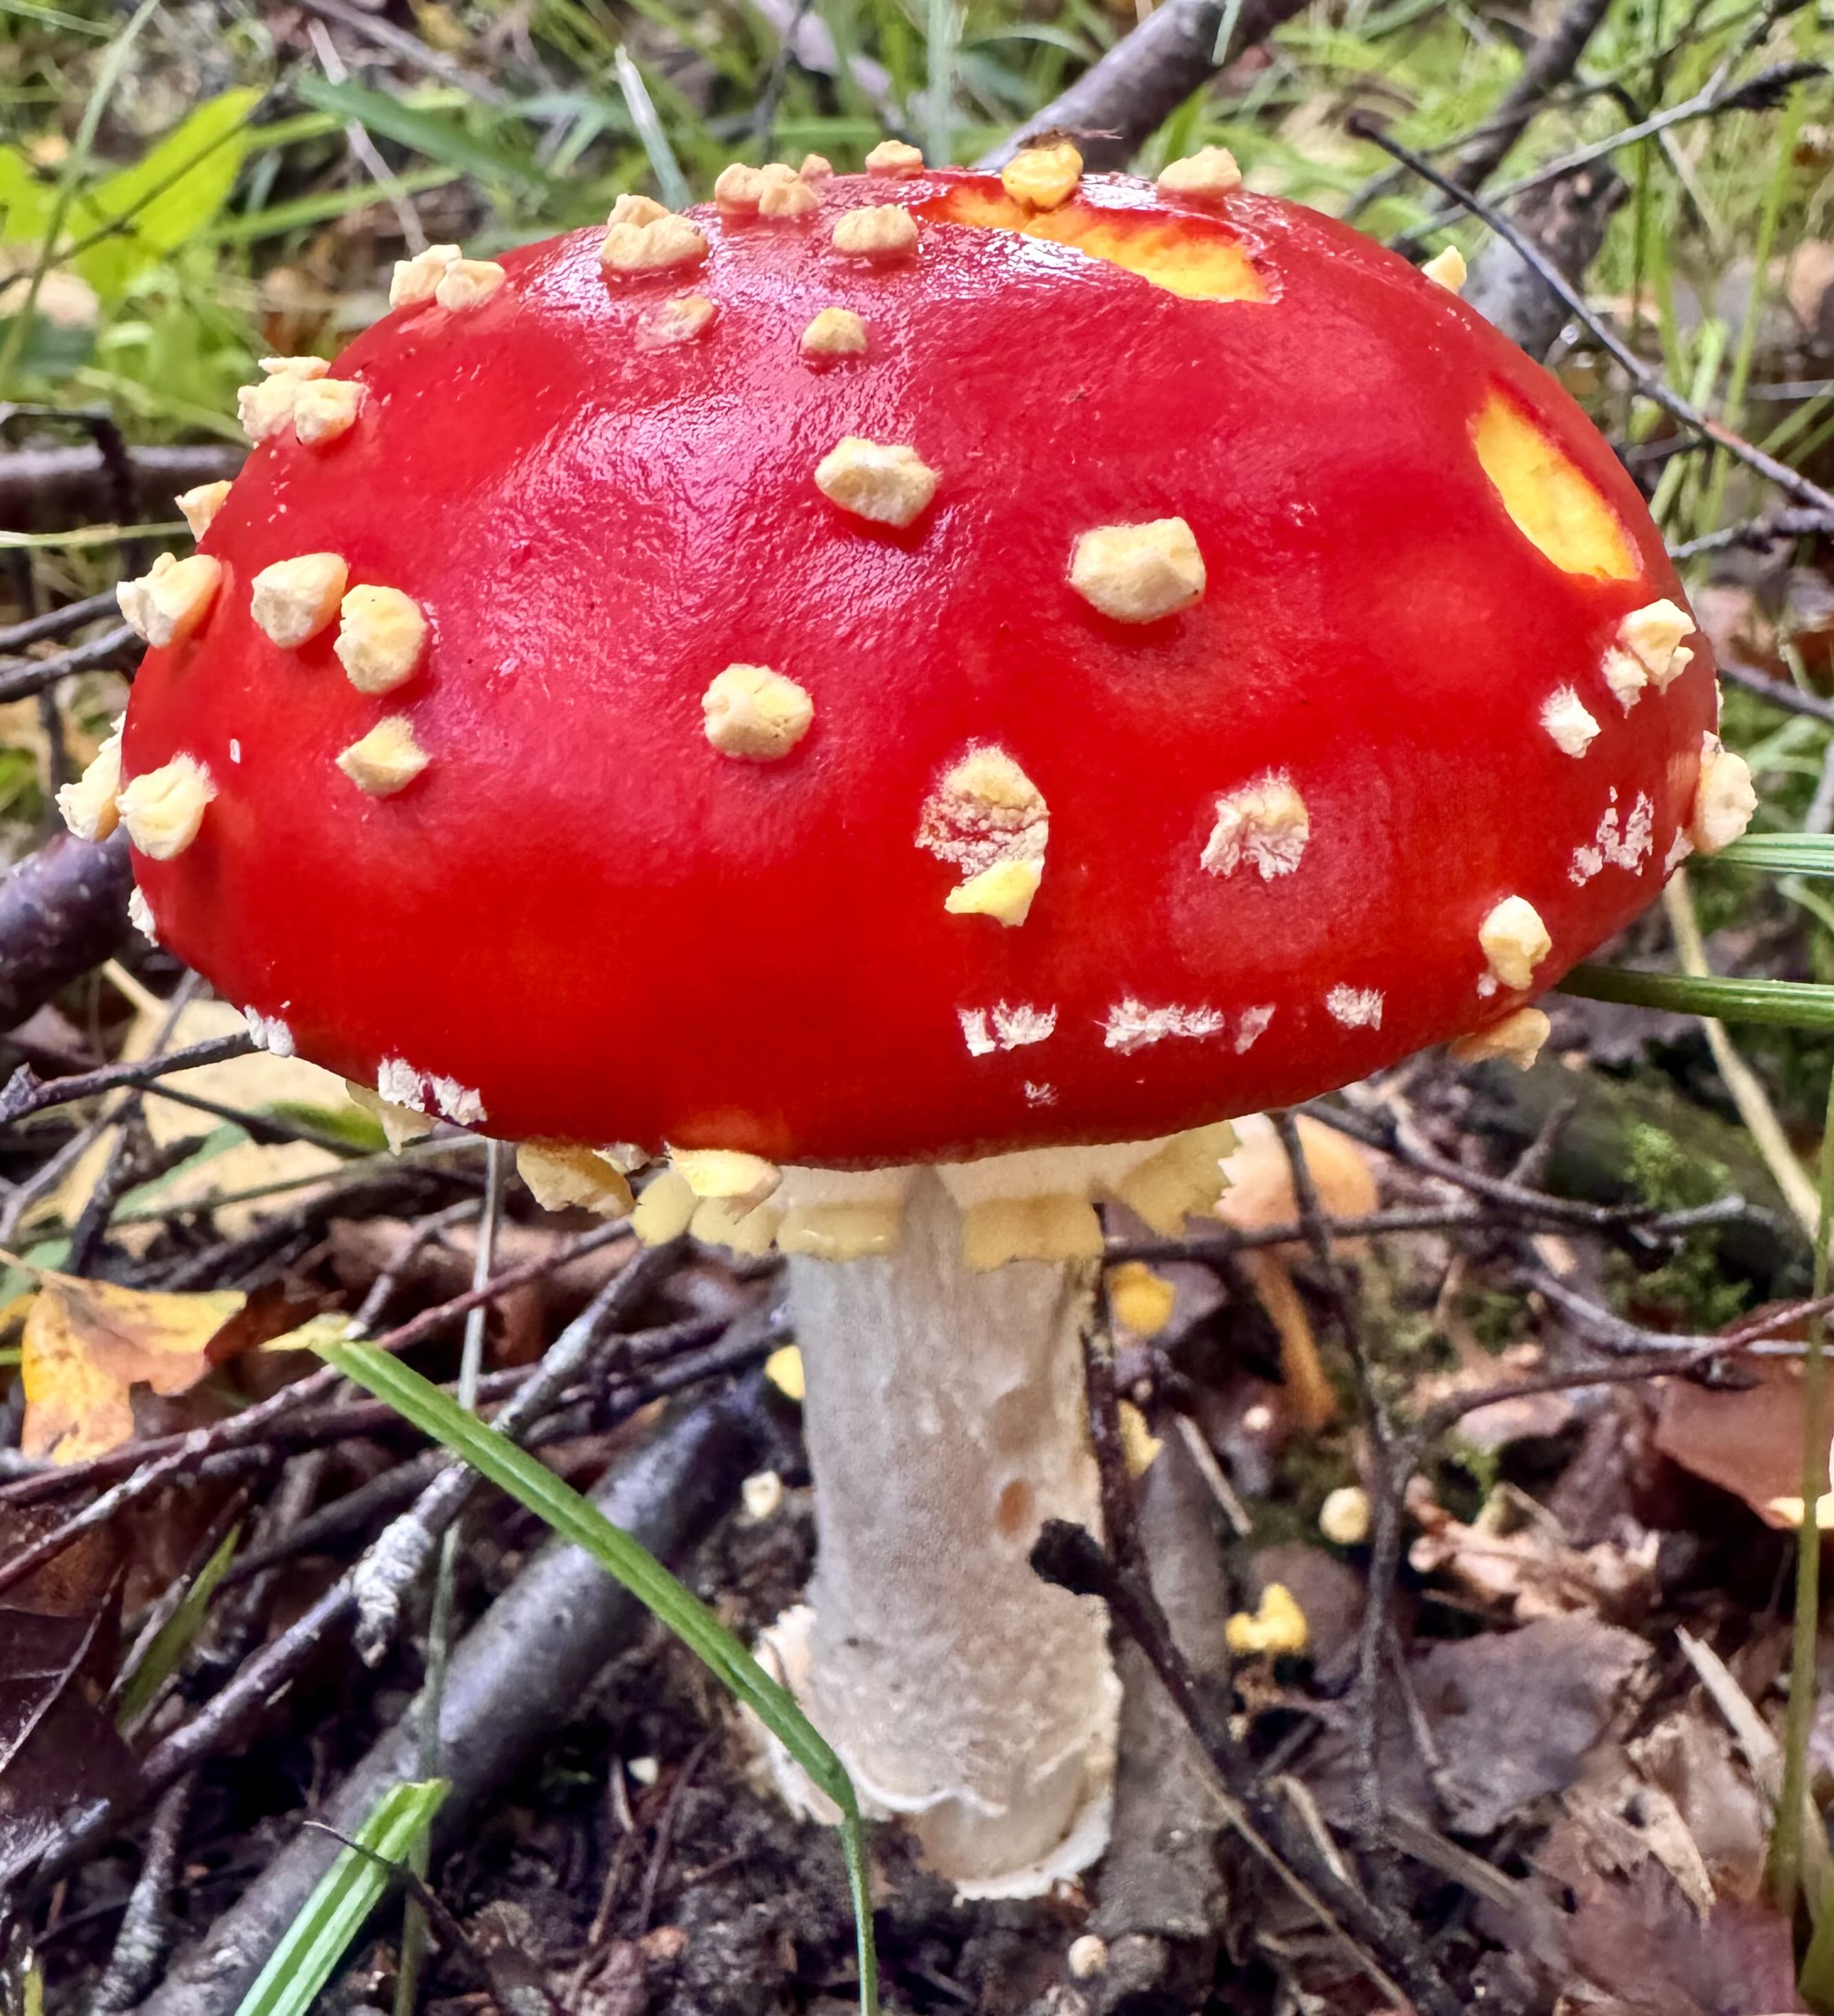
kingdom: Fungi
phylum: Basidiomycota
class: Agaricomycetes
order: Agaricales
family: Amanitaceae
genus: Amanita
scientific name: Amanita muscaria
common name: rød fluesvamp
